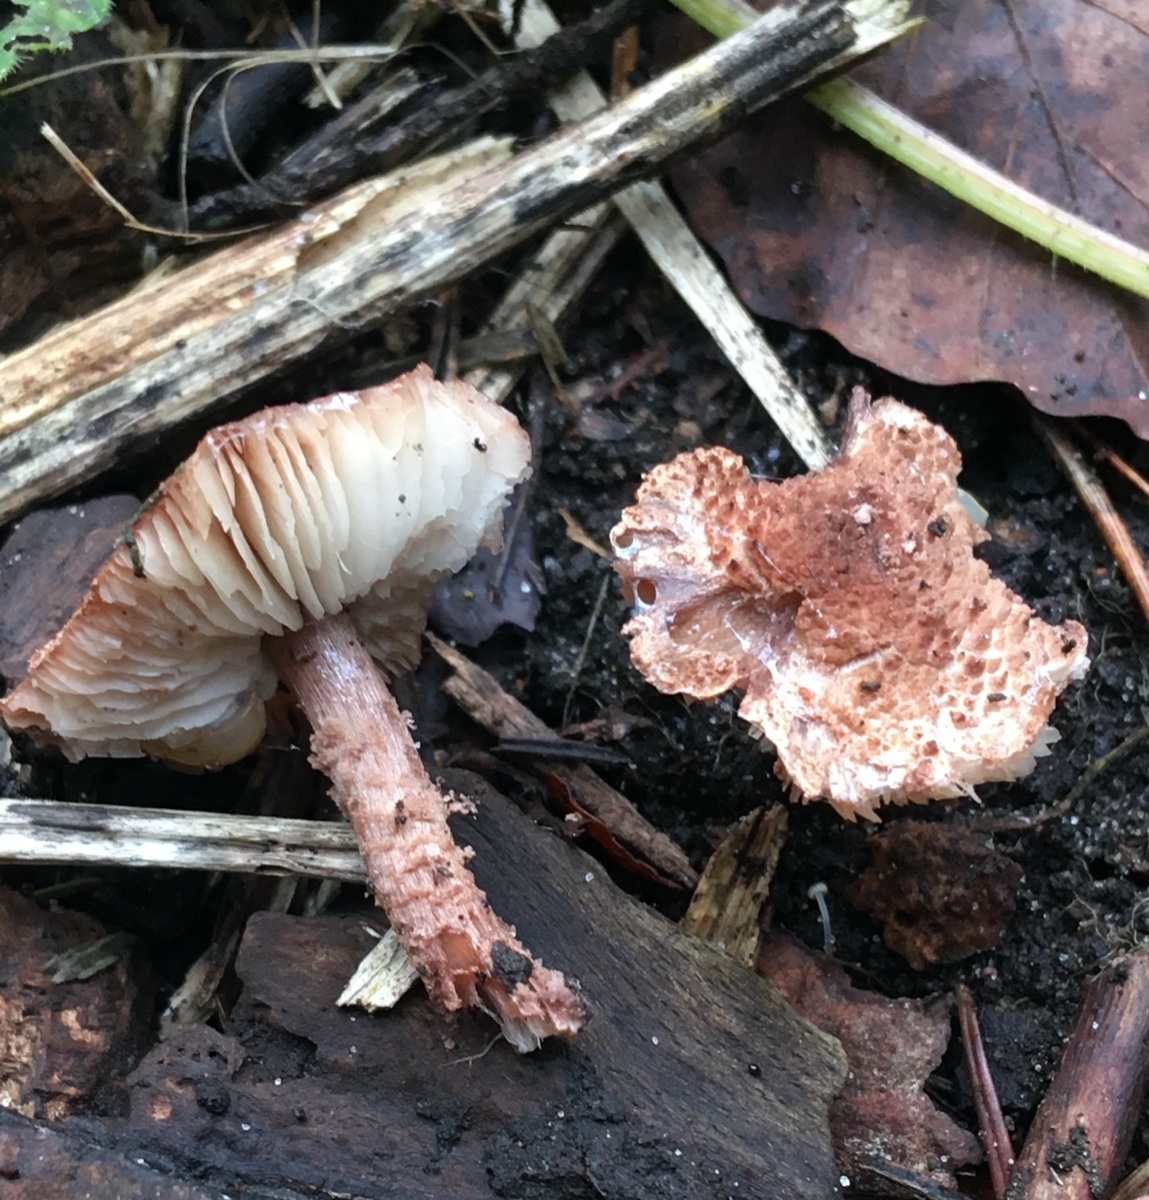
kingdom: Fungi
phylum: Basidiomycota
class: Agaricomycetes
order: Agaricales
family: Agaricaceae
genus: Cystolepiota
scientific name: Cystolepiota moelleri
